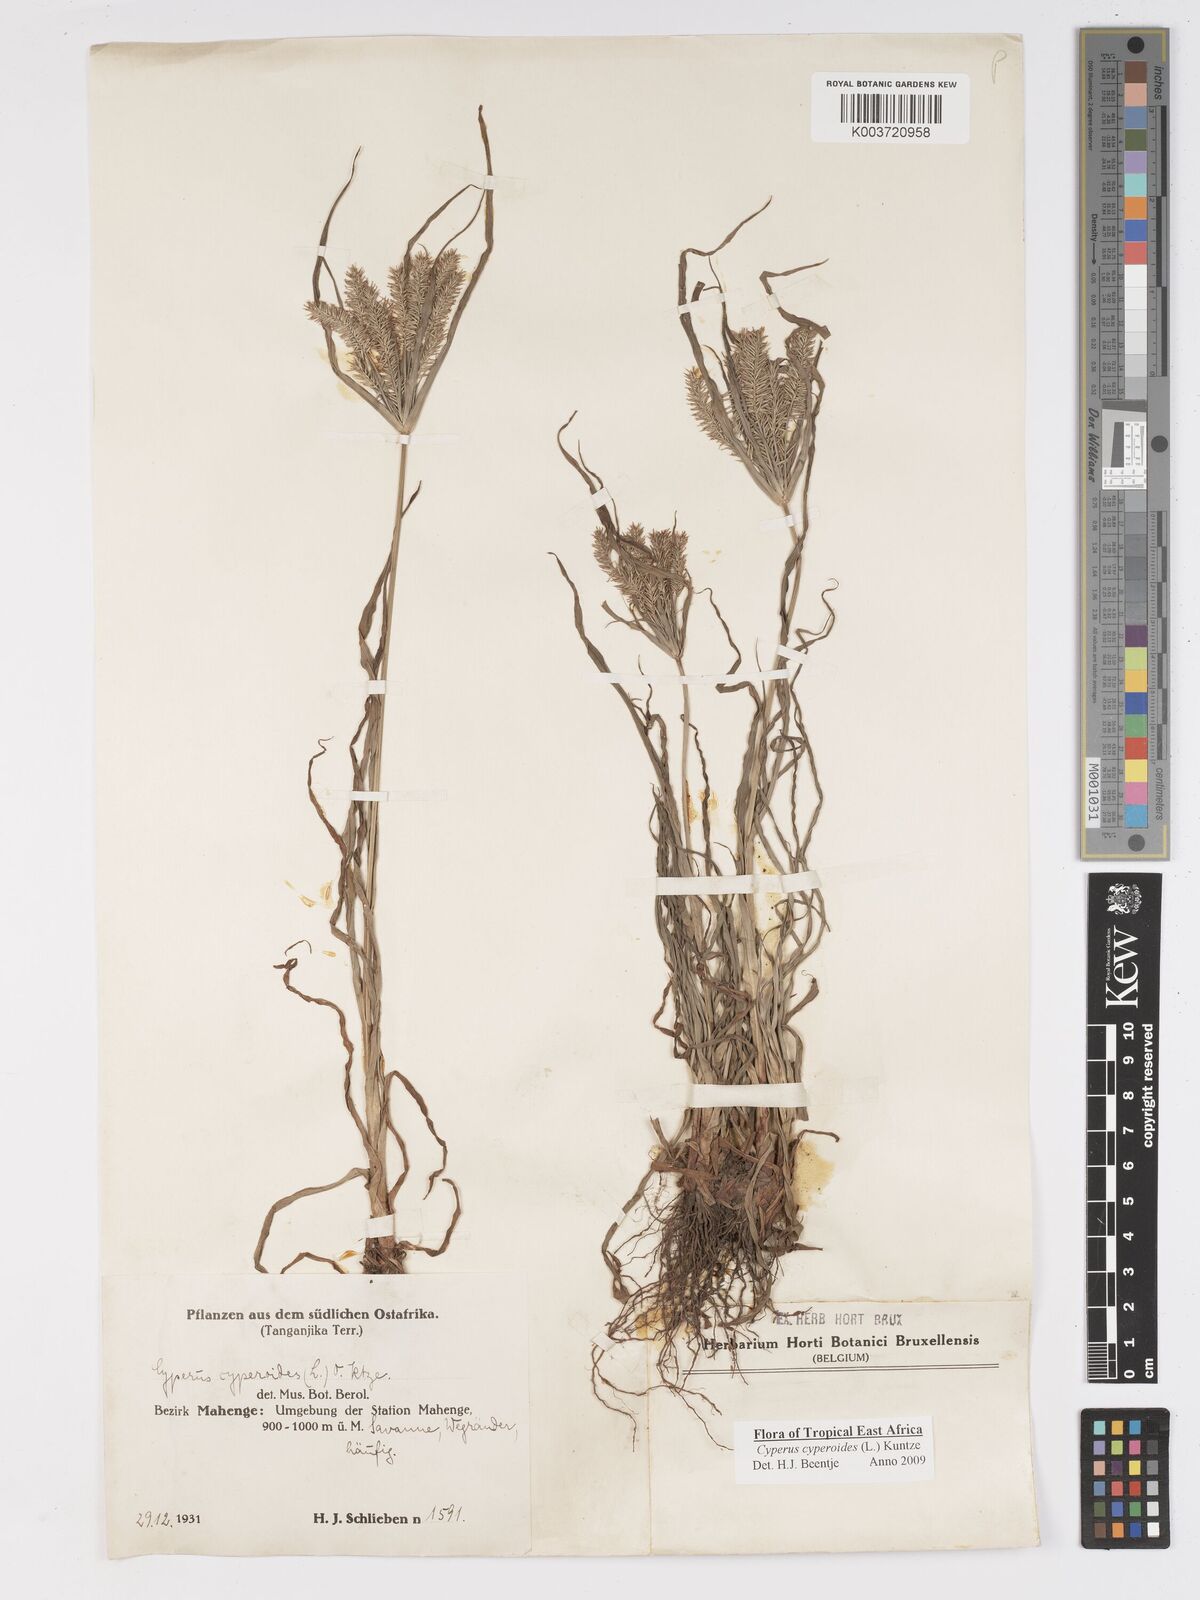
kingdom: Plantae
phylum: Tracheophyta
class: Liliopsida
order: Poales
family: Cyperaceae
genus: Cyperus
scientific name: Cyperus cyperoides
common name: Pacific island flat sedge
